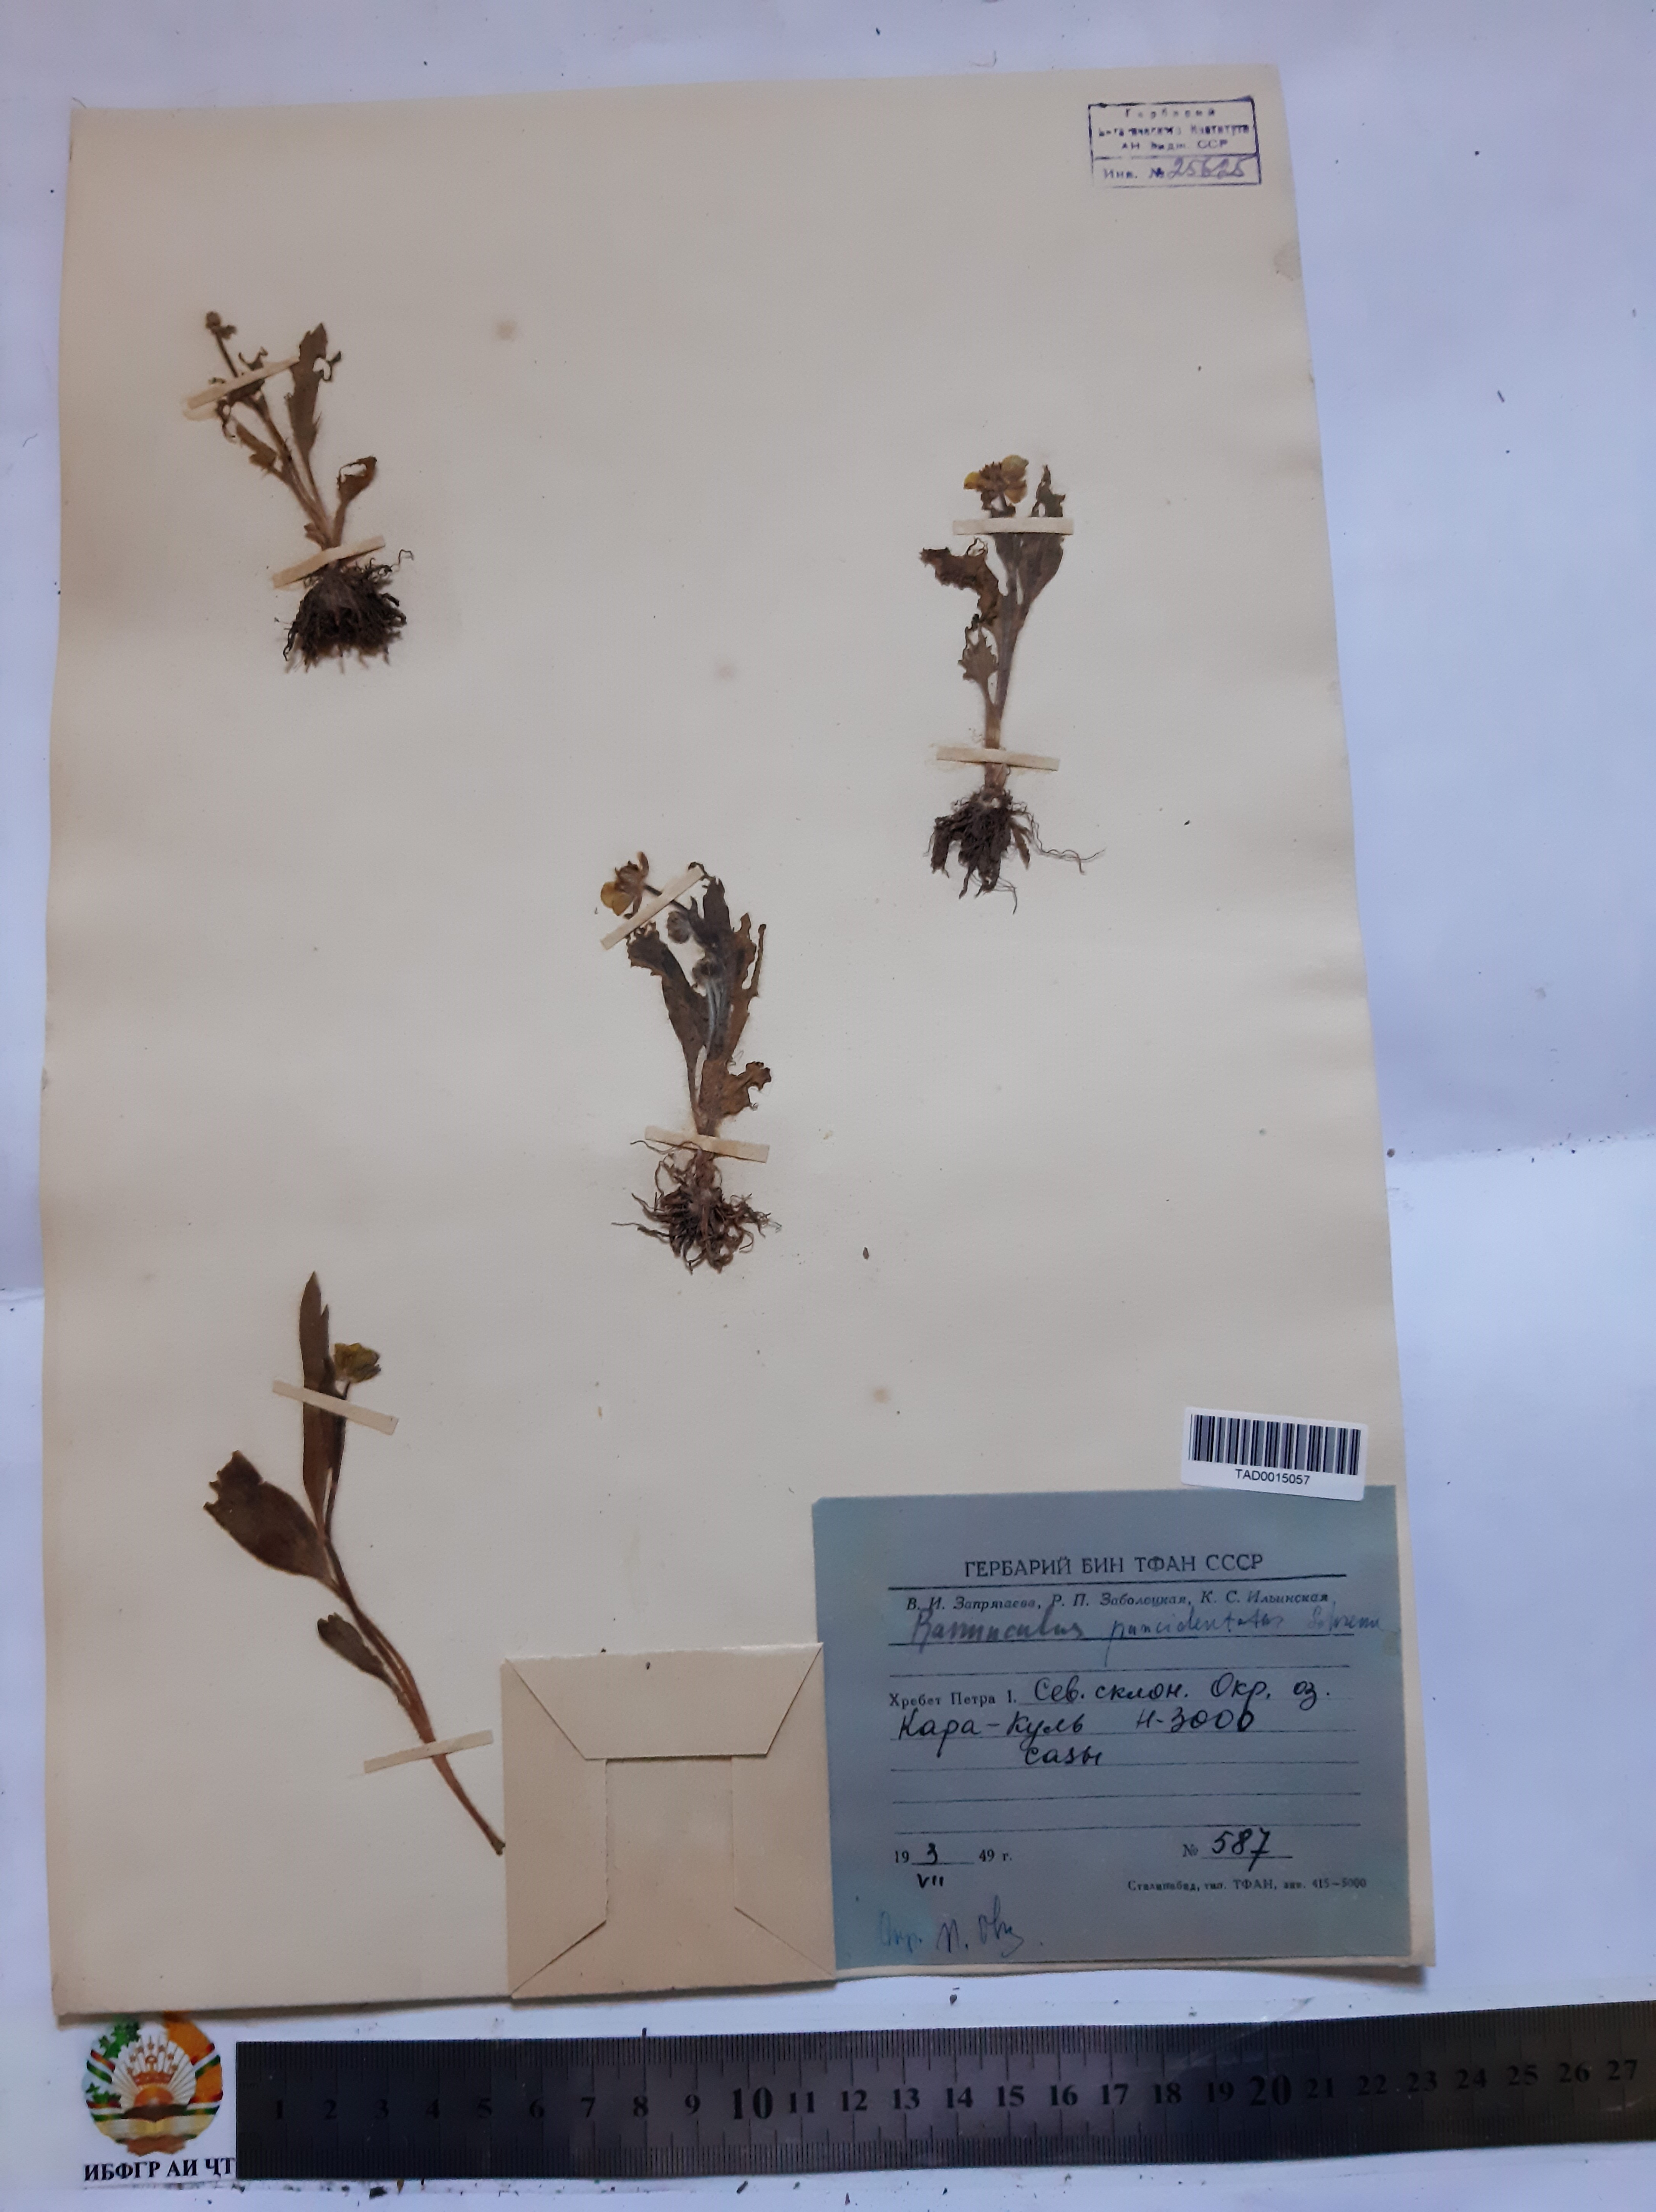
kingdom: Plantae
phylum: Tracheophyta
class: Magnoliopsida
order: Ranunculales
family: Ranunculaceae
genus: Ranunculus
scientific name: Ranunculus paucidentatus
